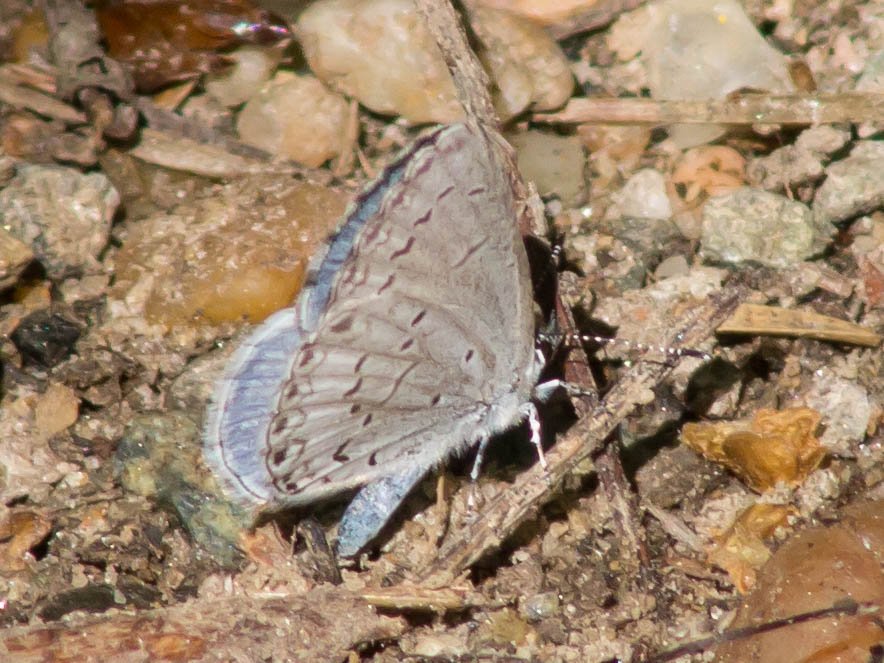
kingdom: Animalia
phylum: Arthropoda
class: Insecta
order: Lepidoptera
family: Lycaenidae
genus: Cyaniris
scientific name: Cyaniris neglecta
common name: Summer Azure
